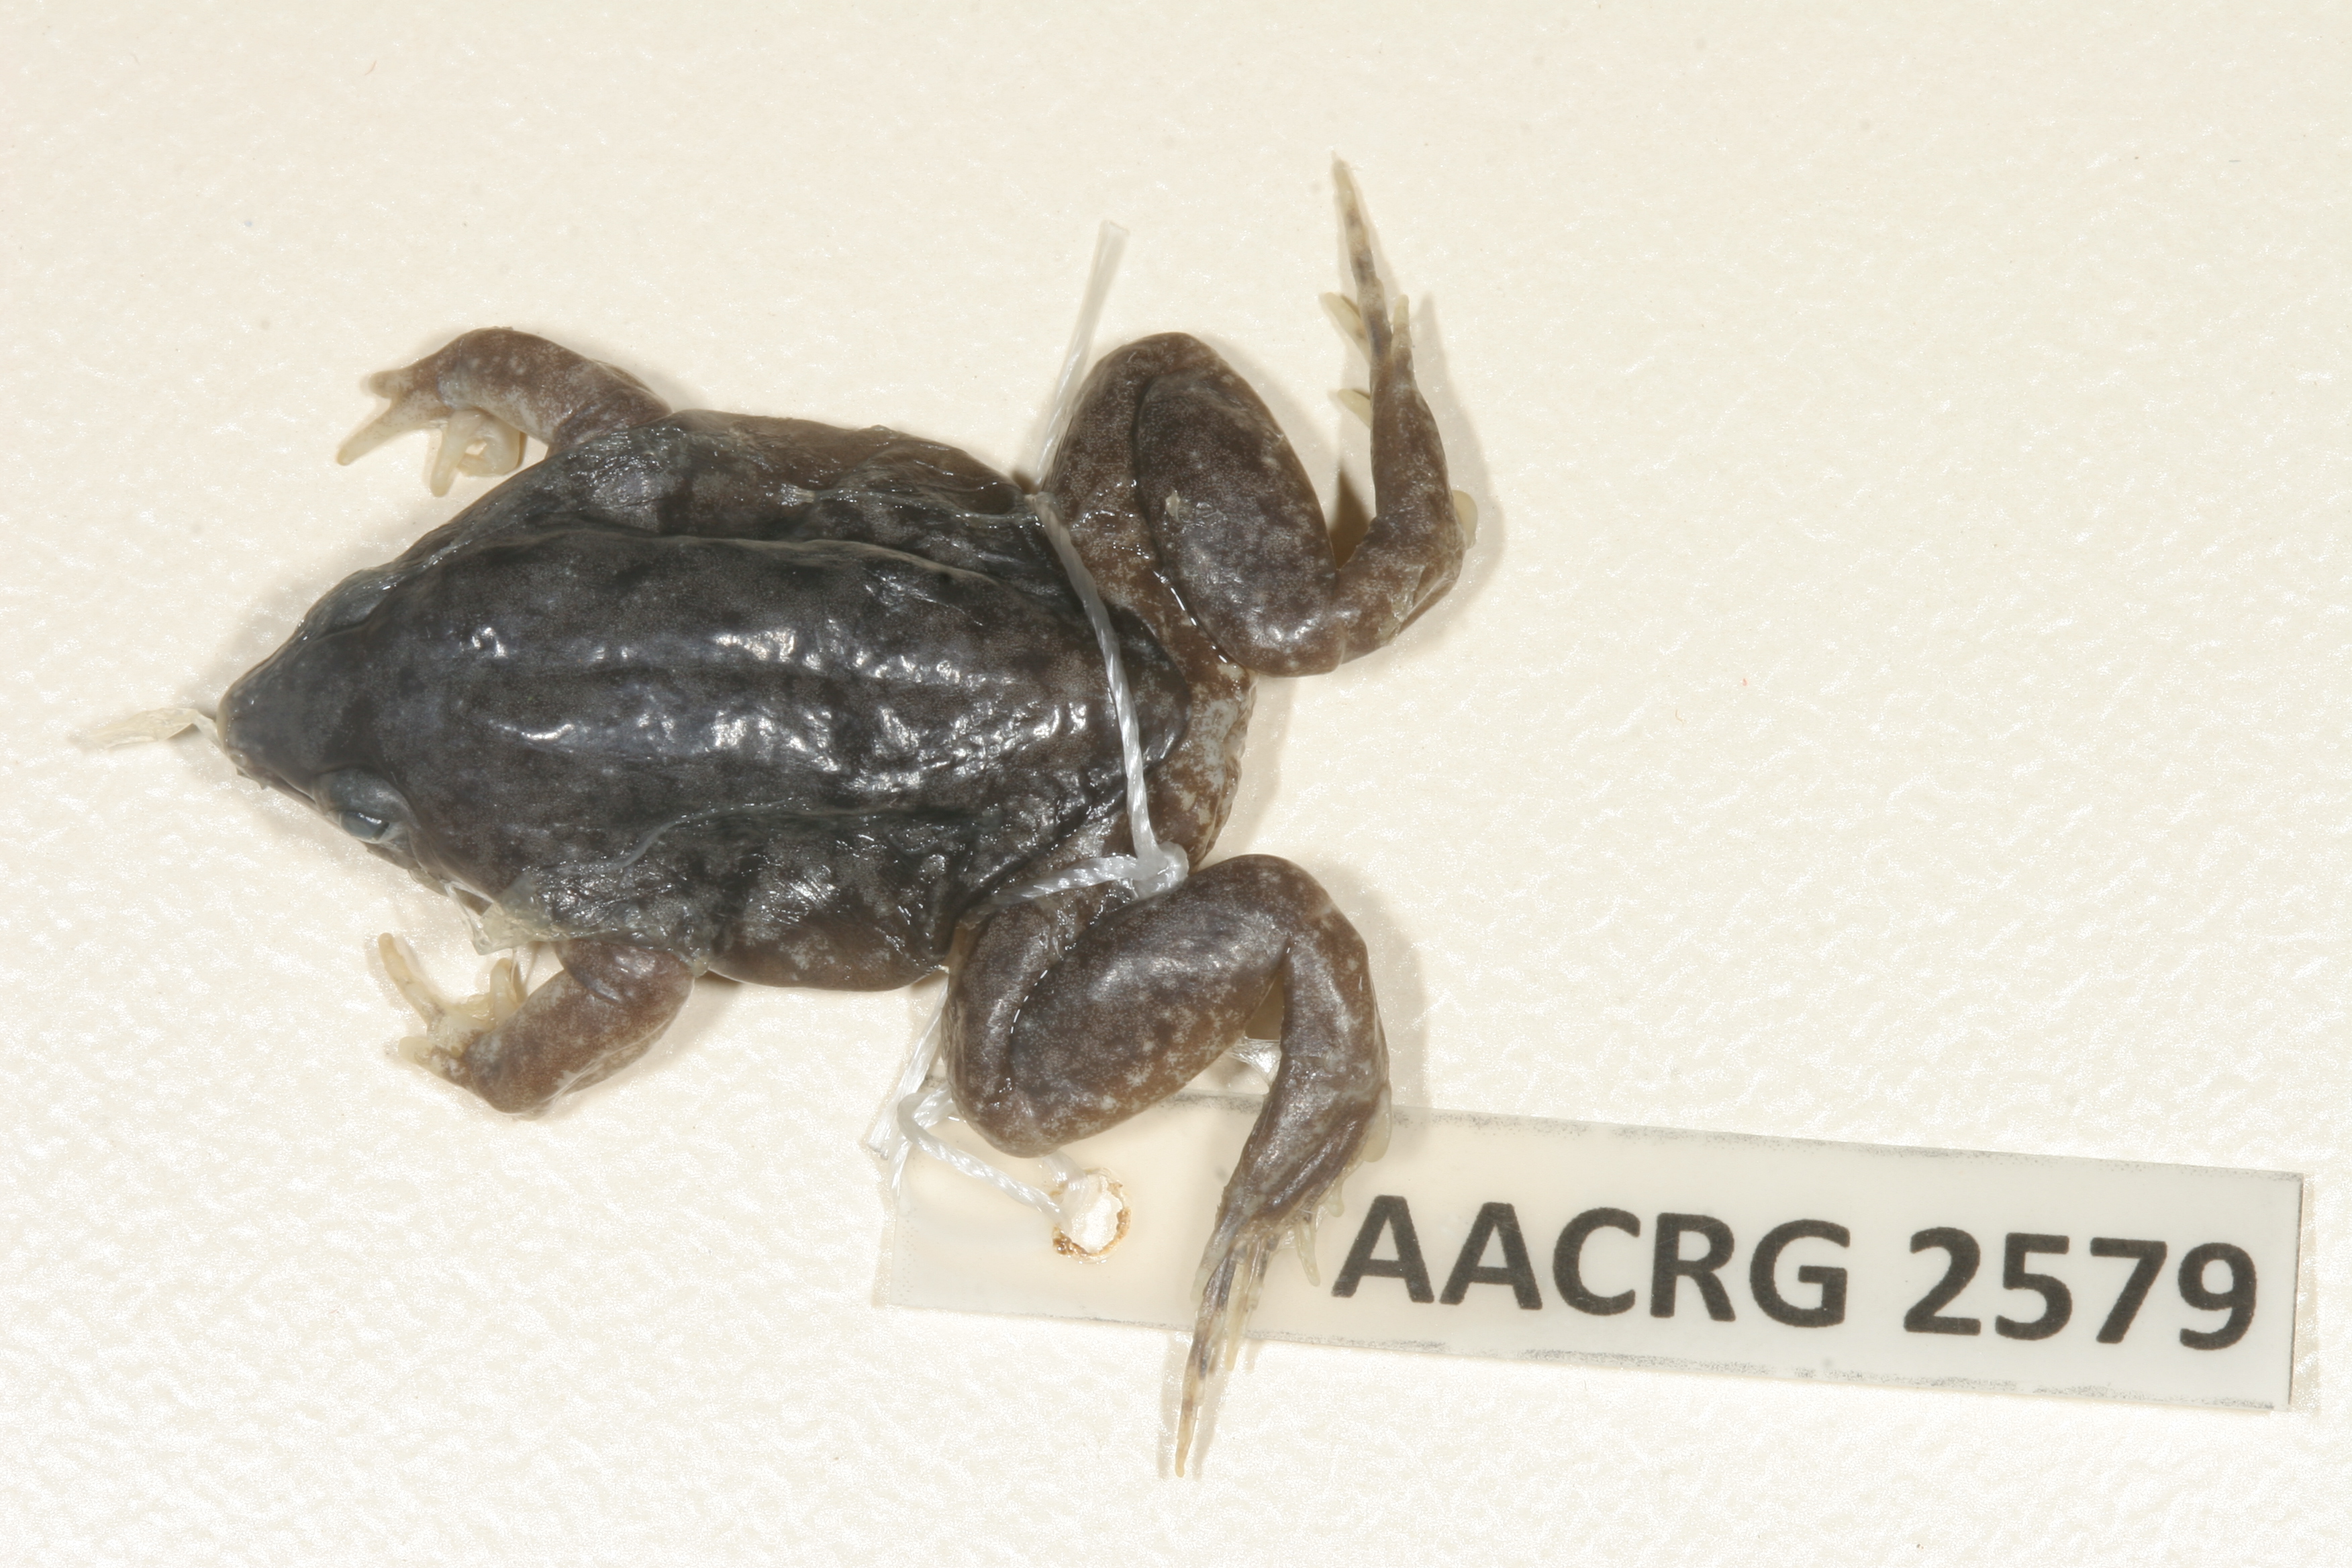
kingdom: Animalia
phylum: Chordata
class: Amphibia
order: Anura
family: Hemisotidae
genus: Hemisus
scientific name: Hemisus marmoratus
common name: Mottled shovel-nosed frog
